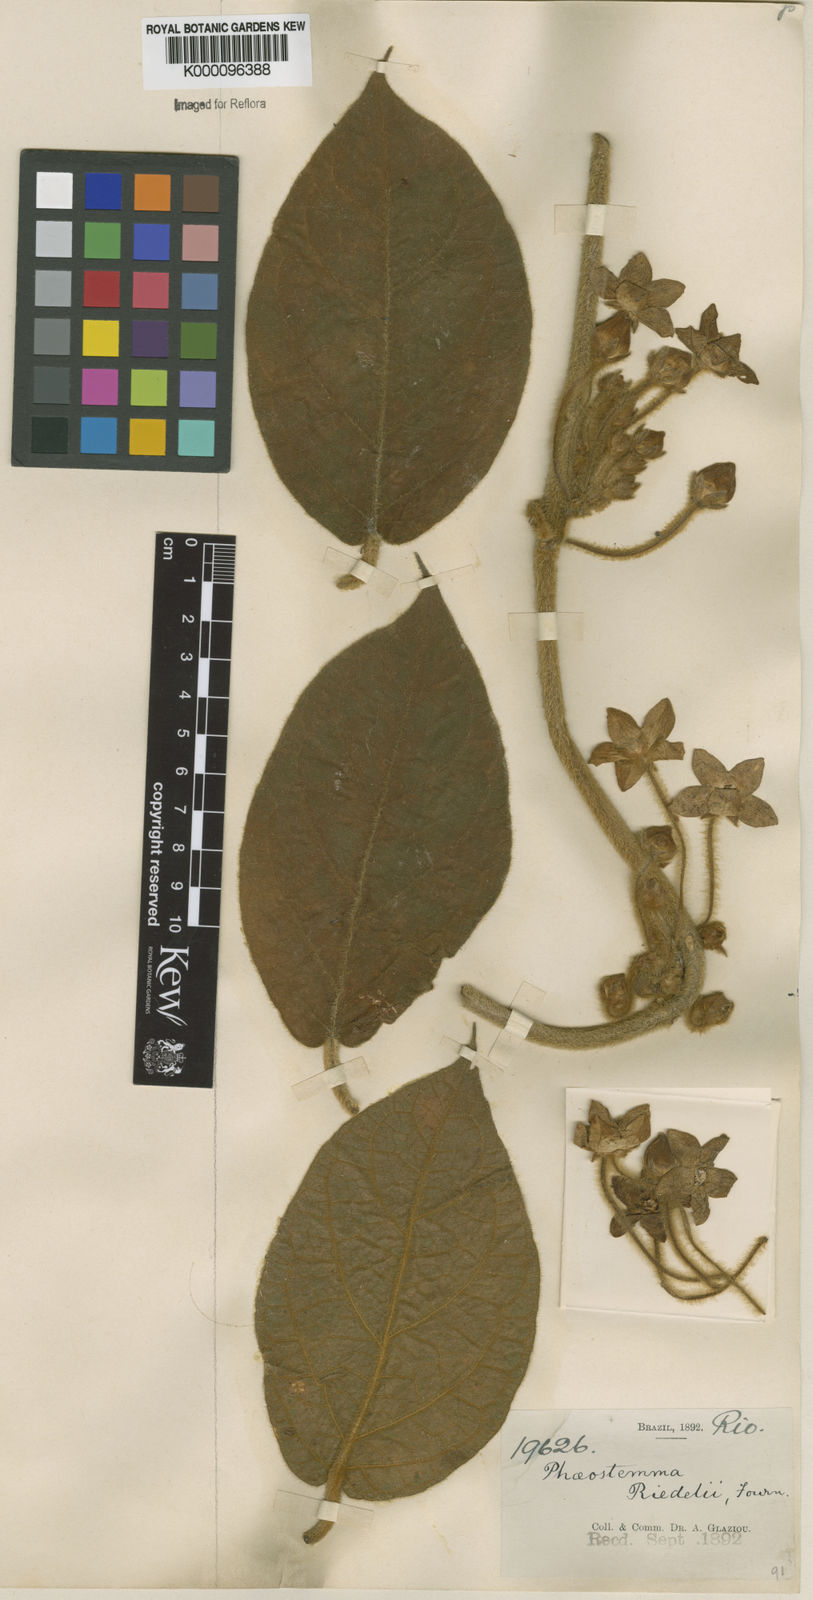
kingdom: Plantae
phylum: Tracheophyta
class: Magnoliopsida
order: Gentianales
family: Apocynaceae
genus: Matelea
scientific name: Matelea
